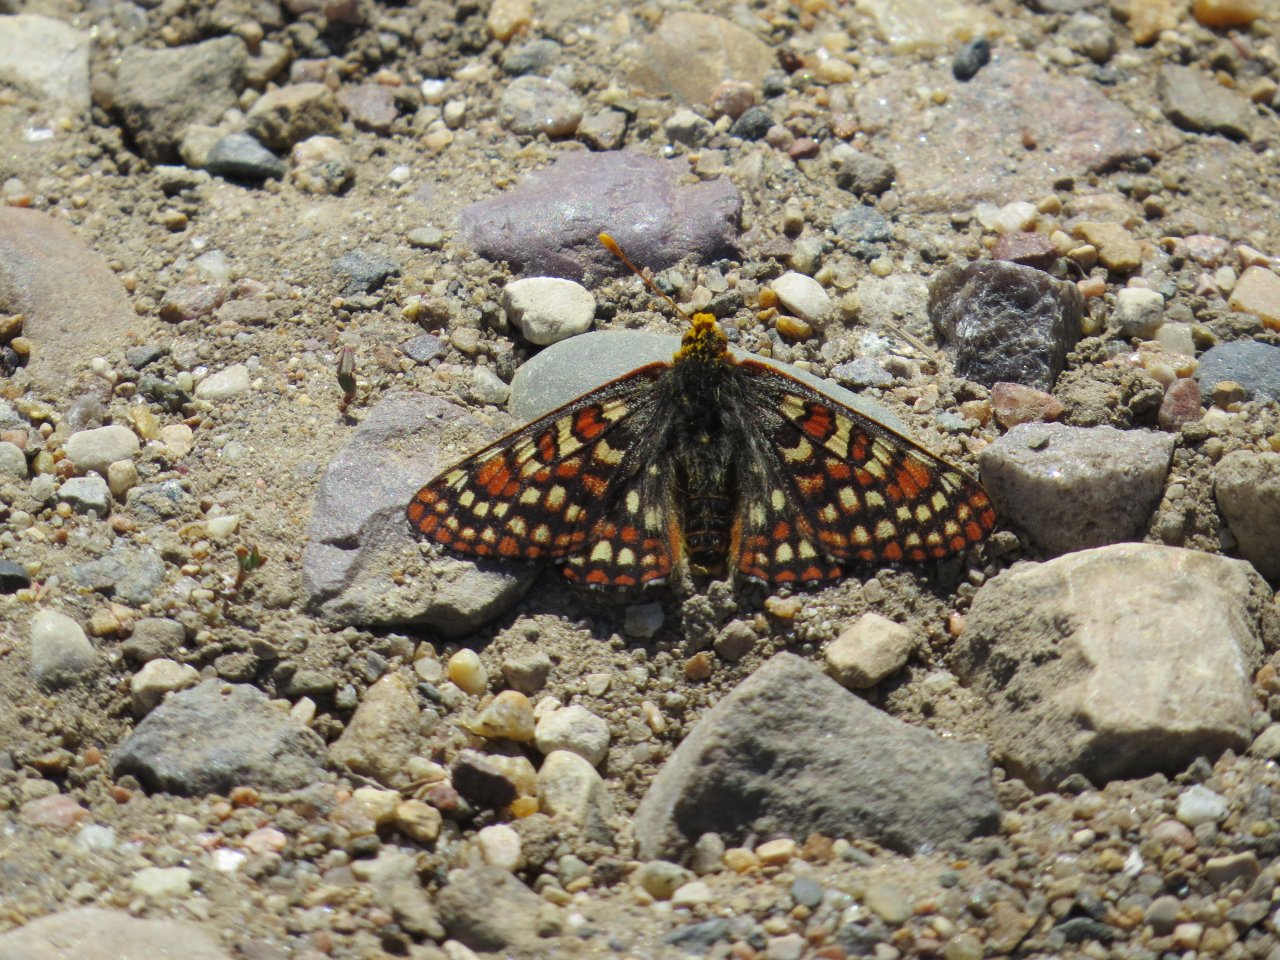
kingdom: Animalia
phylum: Arthropoda
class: Insecta
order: Lepidoptera
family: Nymphalidae
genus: Occidryas
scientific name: Occidryas anicia
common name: Anicia Checkerspot
